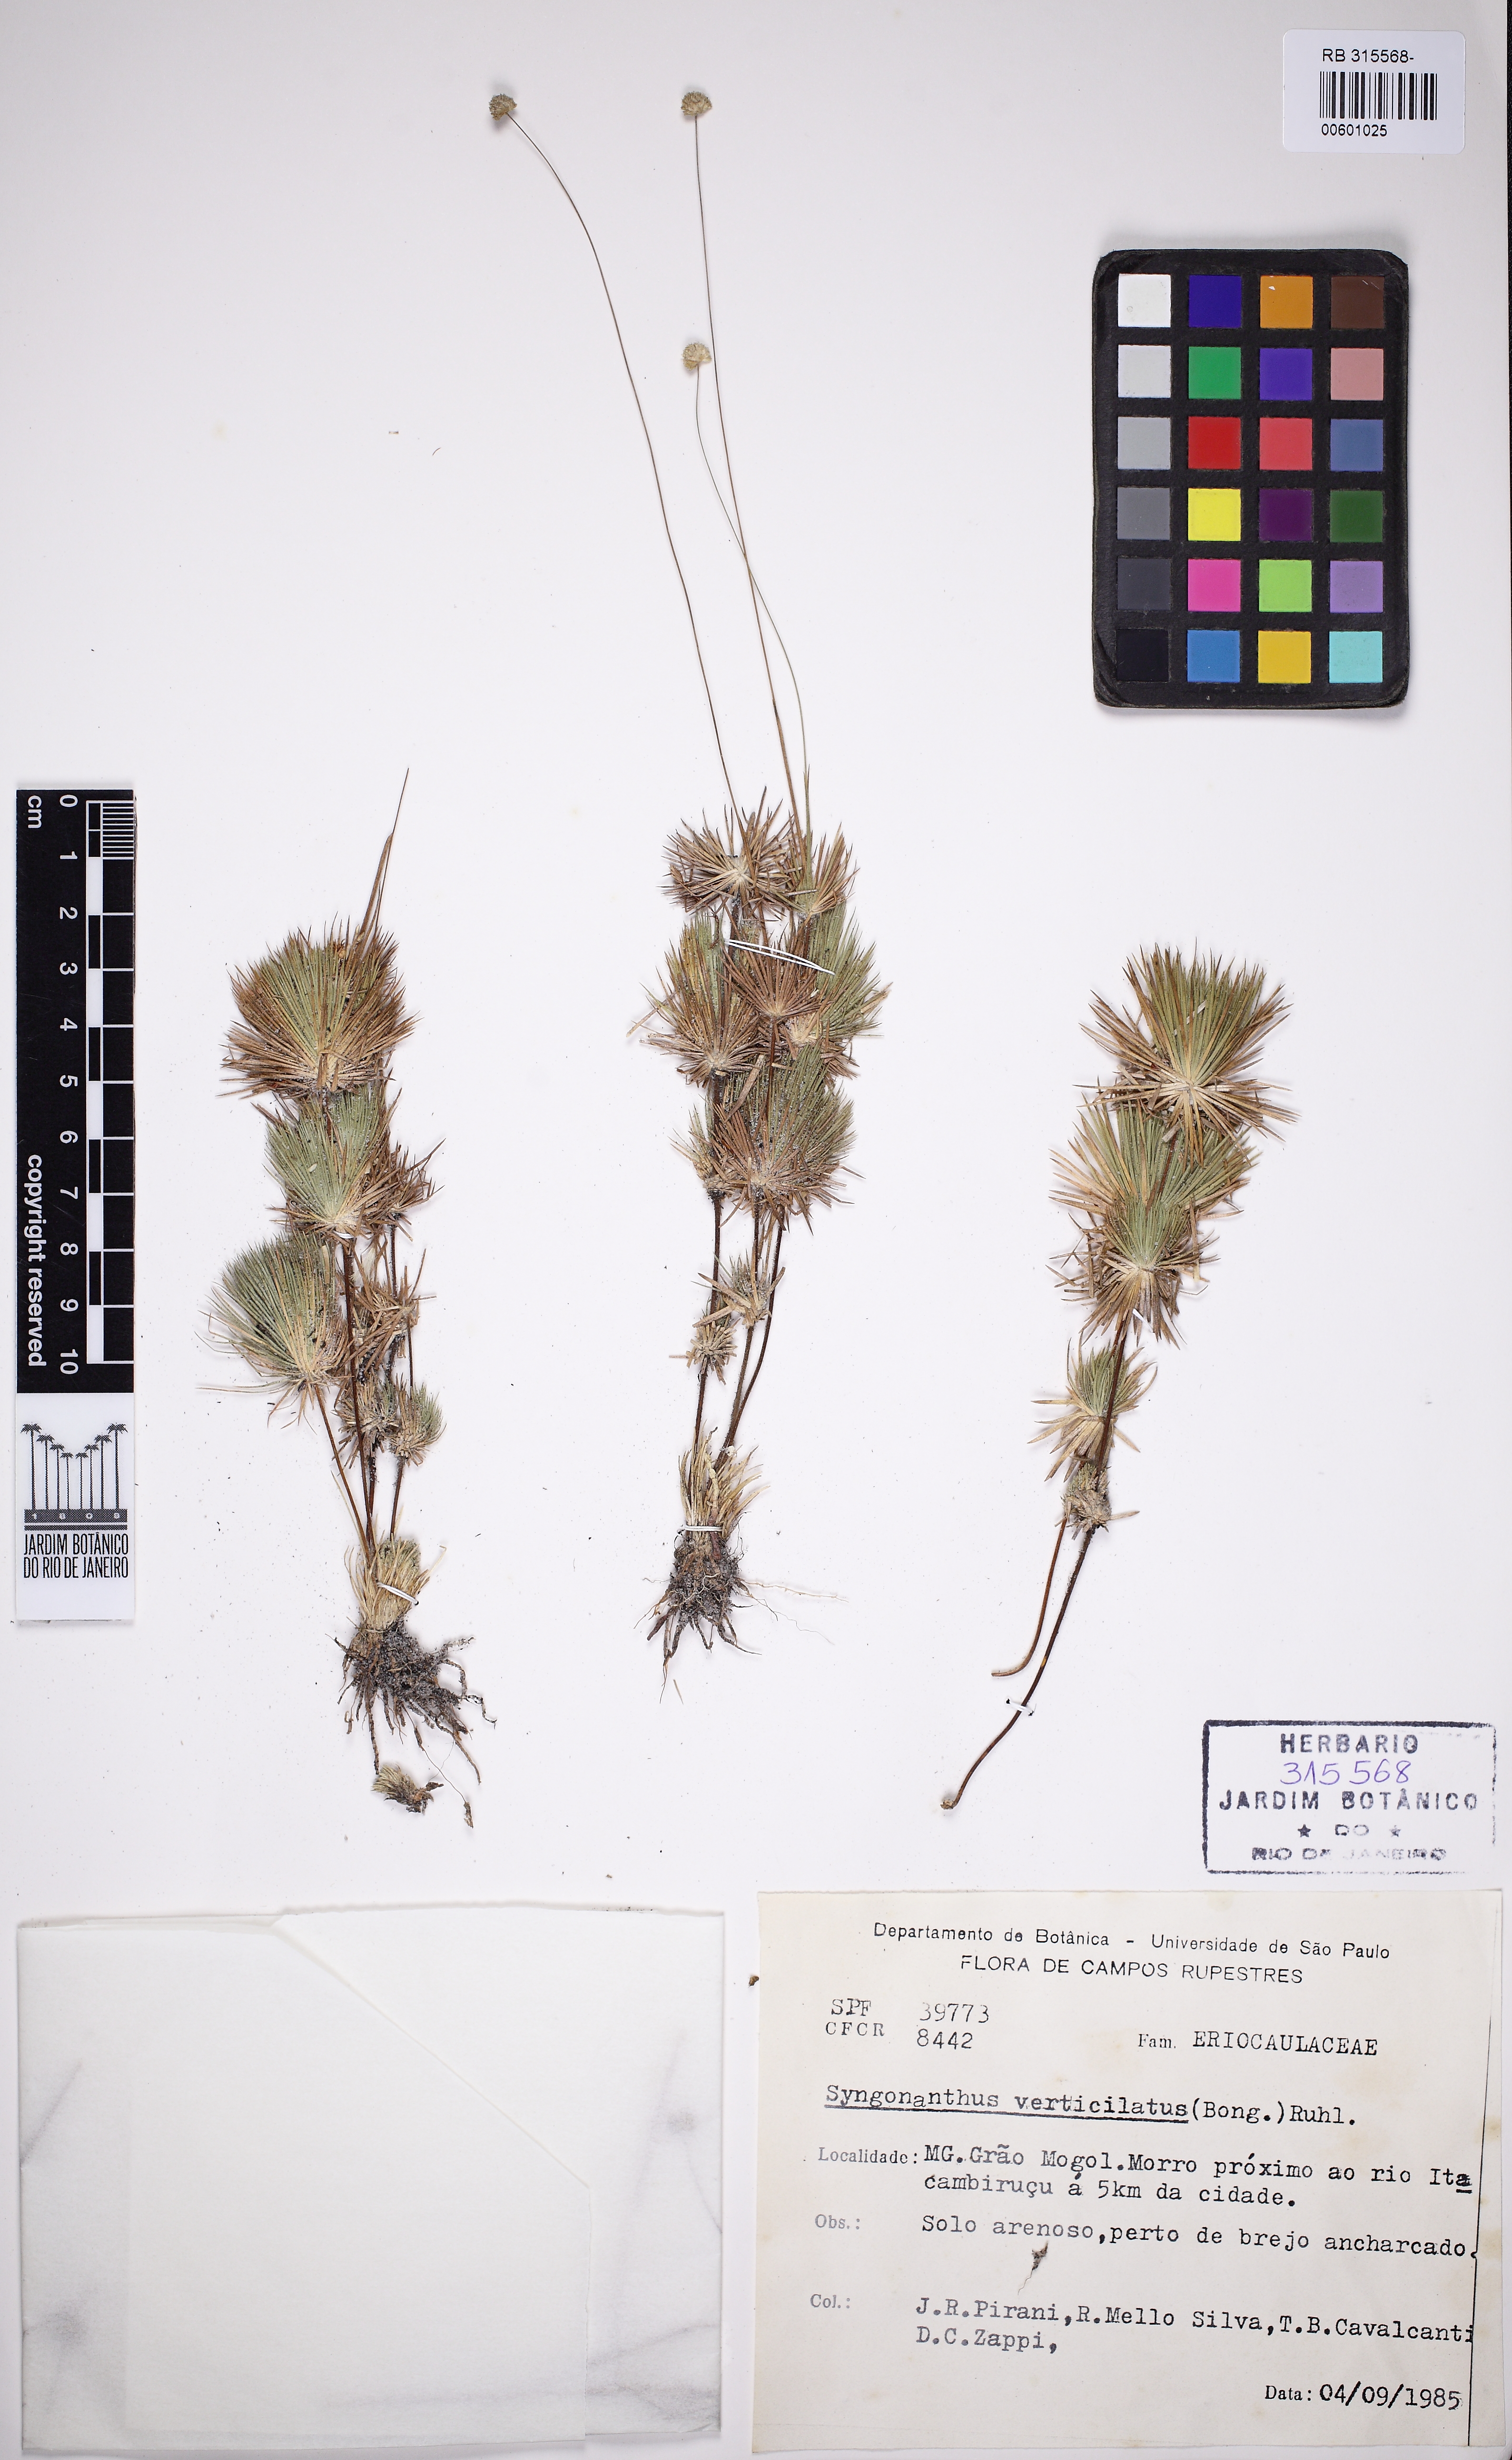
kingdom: Plantae
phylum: Tracheophyta
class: Liliopsida
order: Poales
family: Eriocaulaceae
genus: Syngonanthus
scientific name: Syngonanthus verticillatus
